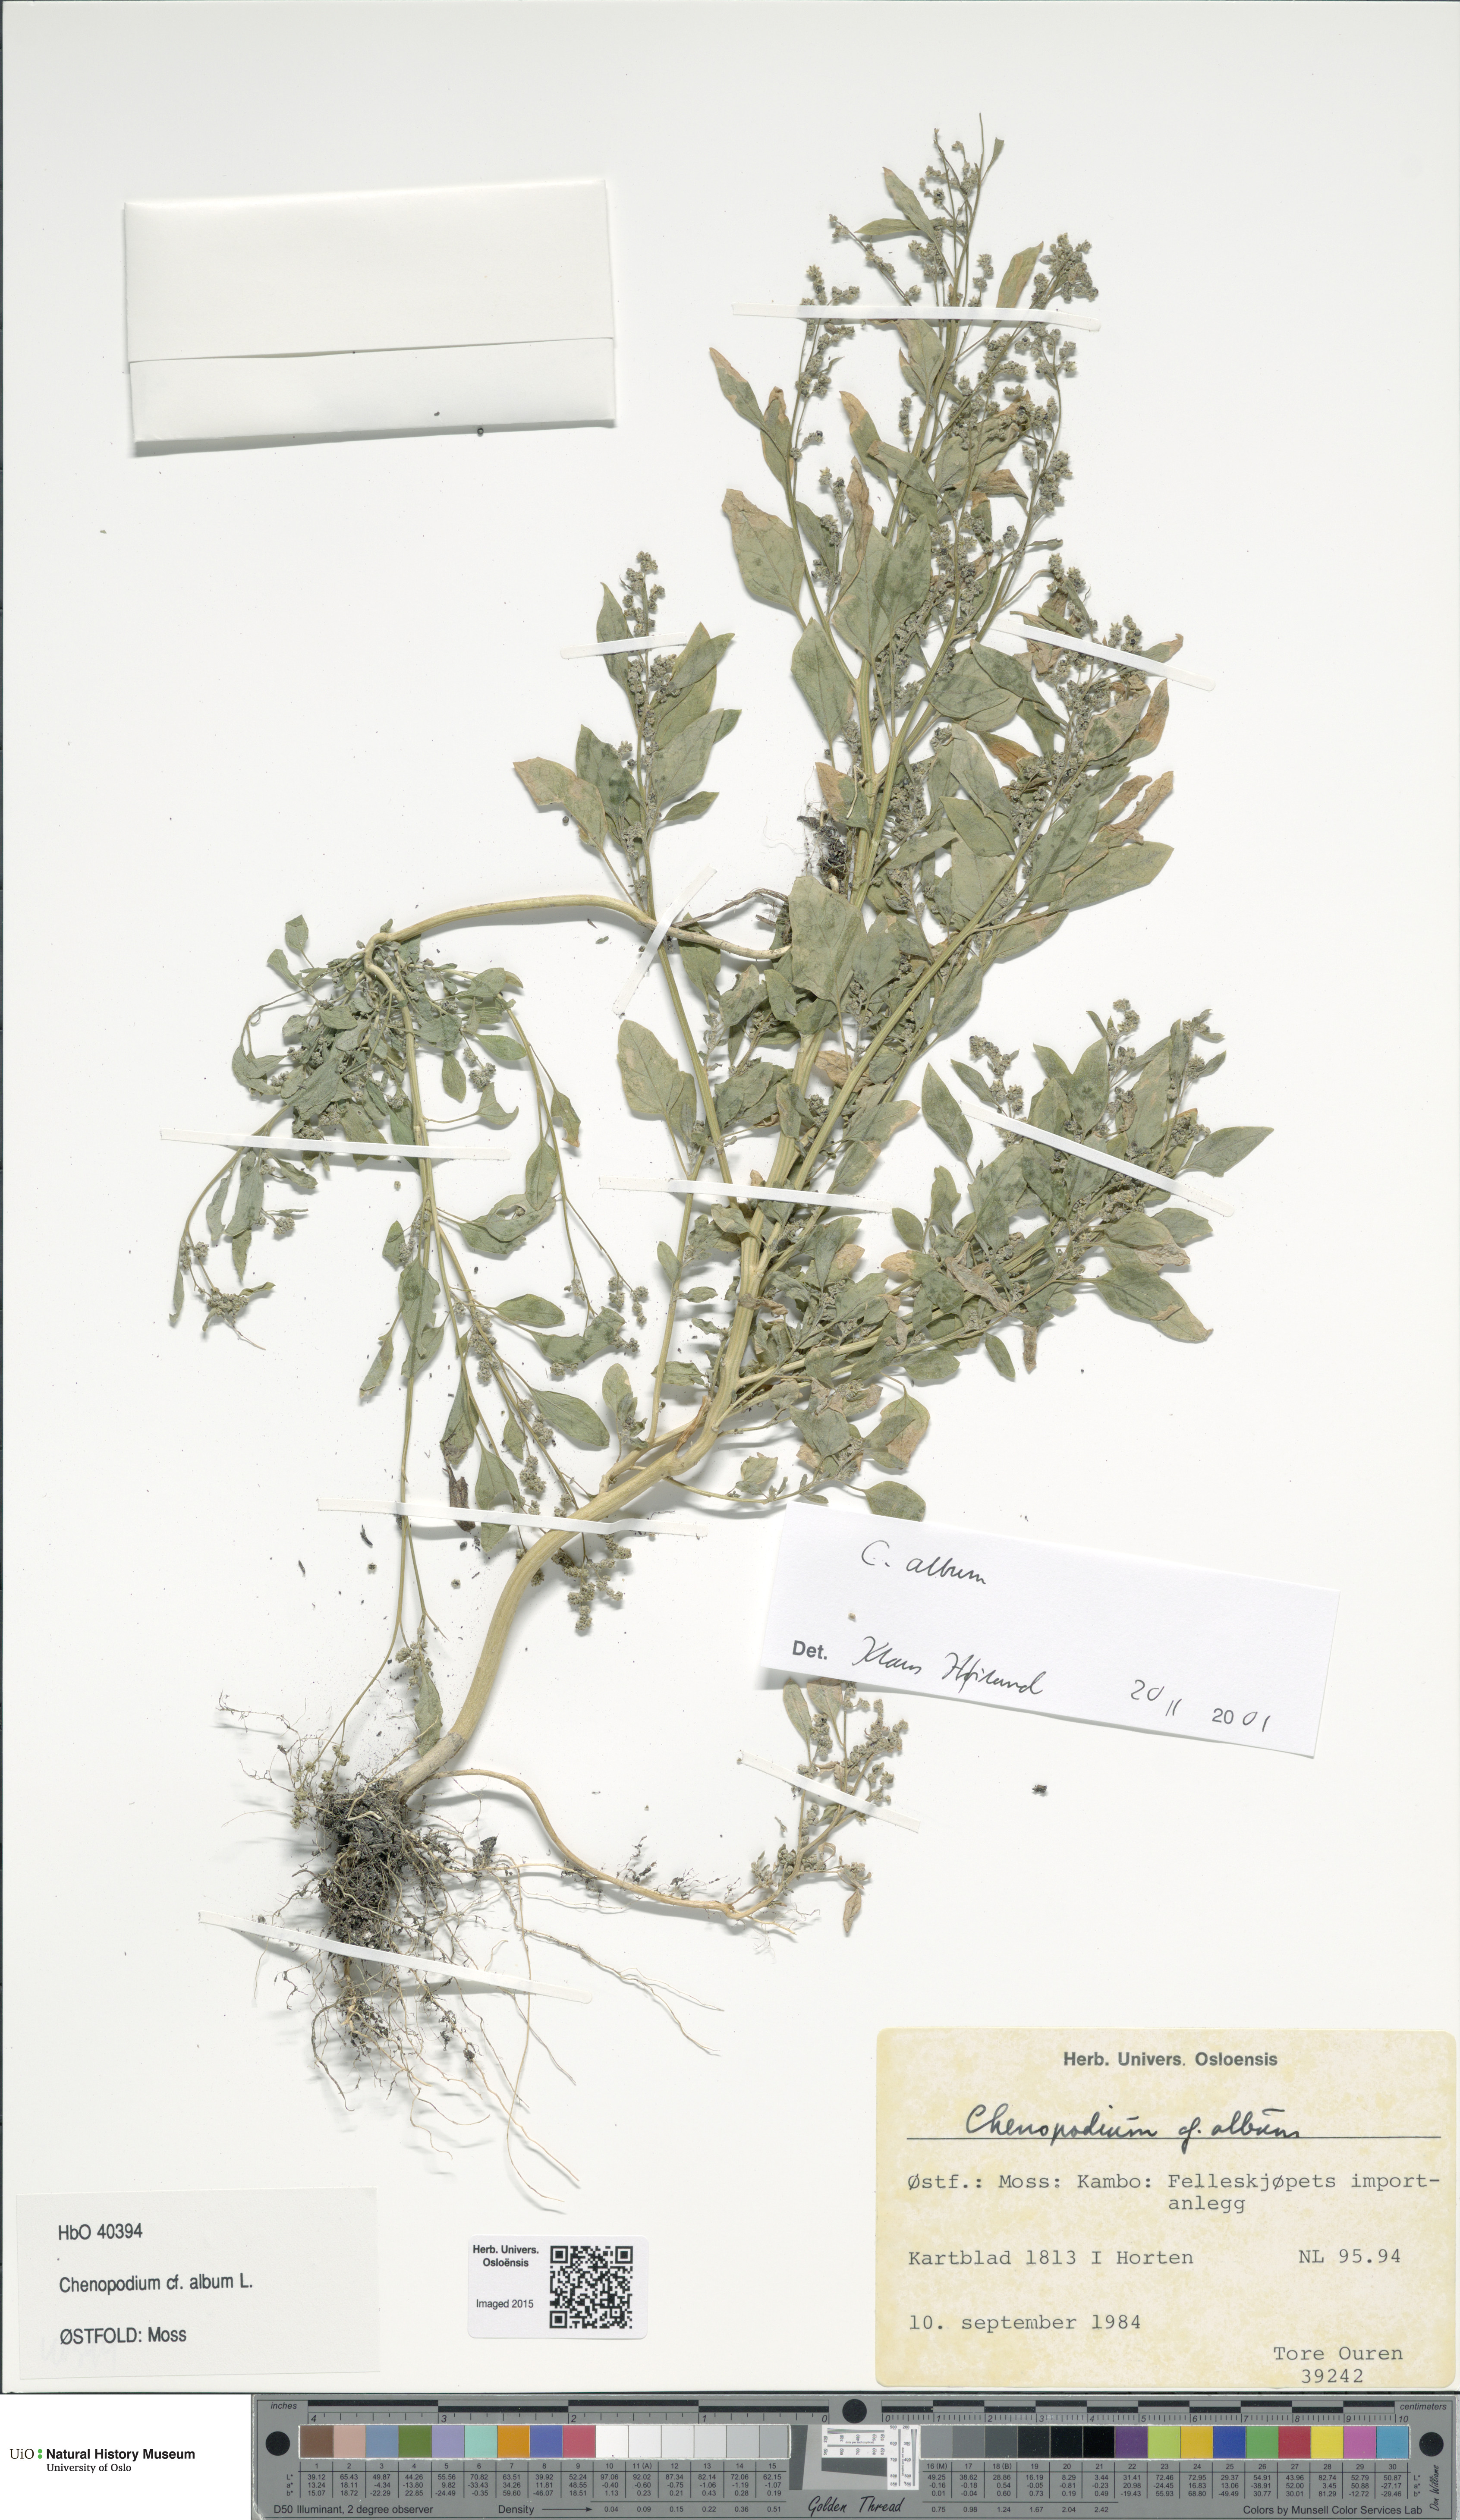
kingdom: Plantae
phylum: Tracheophyta
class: Magnoliopsida
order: Caryophyllales
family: Amaranthaceae
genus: Chenopodium
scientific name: Chenopodium album
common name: Fat-hen
